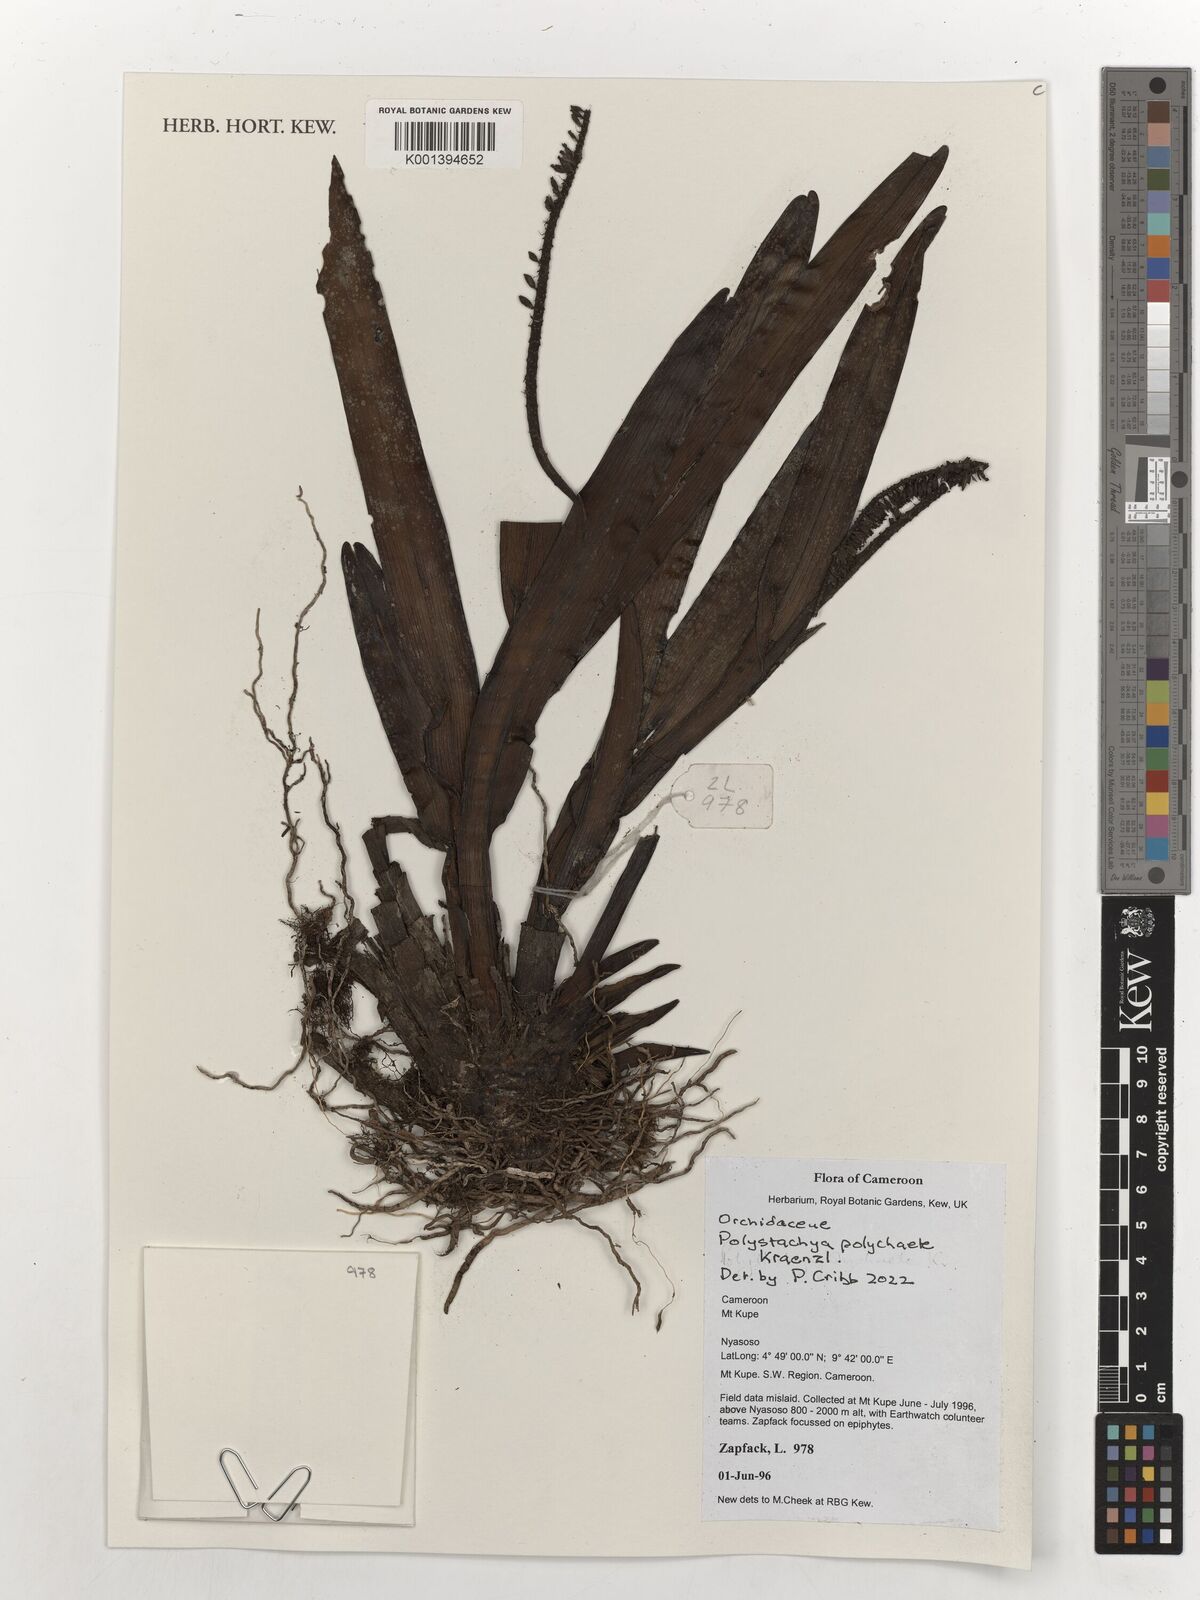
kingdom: Plantae
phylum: Tracheophyta
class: Liliopsida
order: Asparagales
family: Orchidaceae
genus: Polystachya
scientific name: Polystachya polychaete
